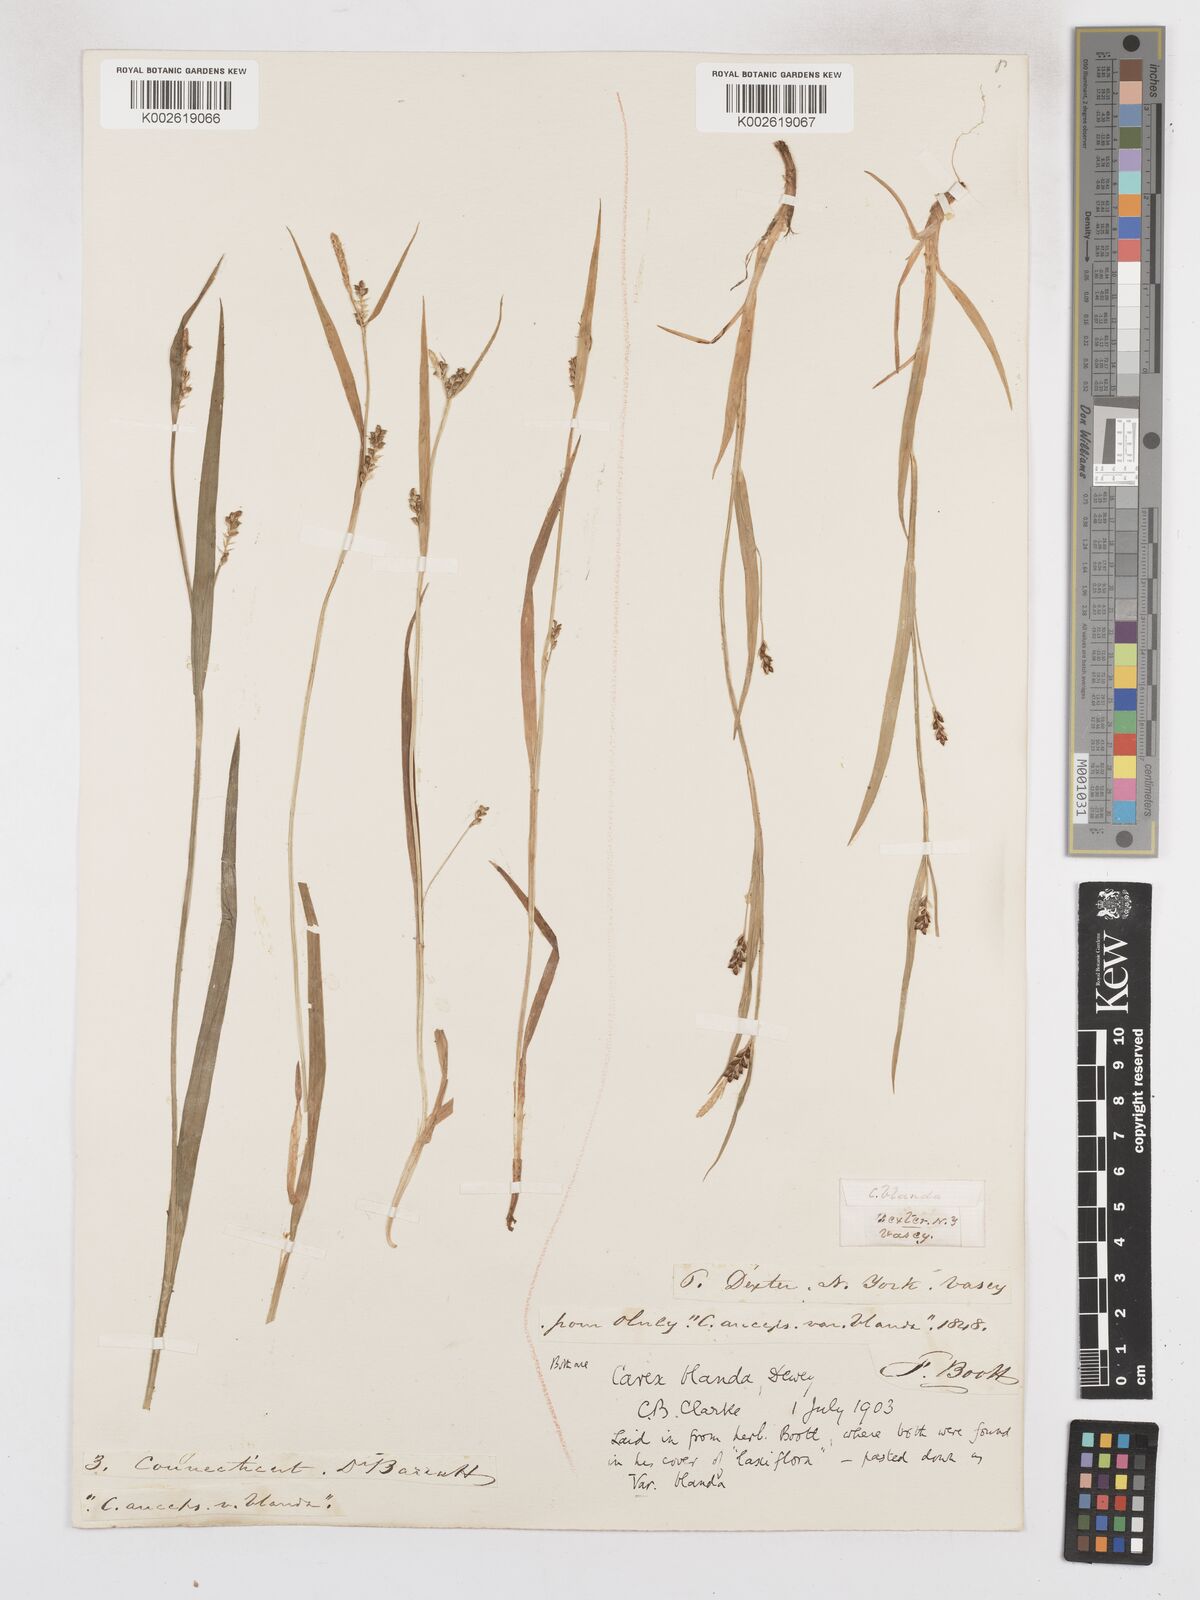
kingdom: Plantae
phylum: Tracheophyta
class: Liliopsida
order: Poales
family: Cyperaceae
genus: Carex
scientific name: Carex blanda
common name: Bland sedge
